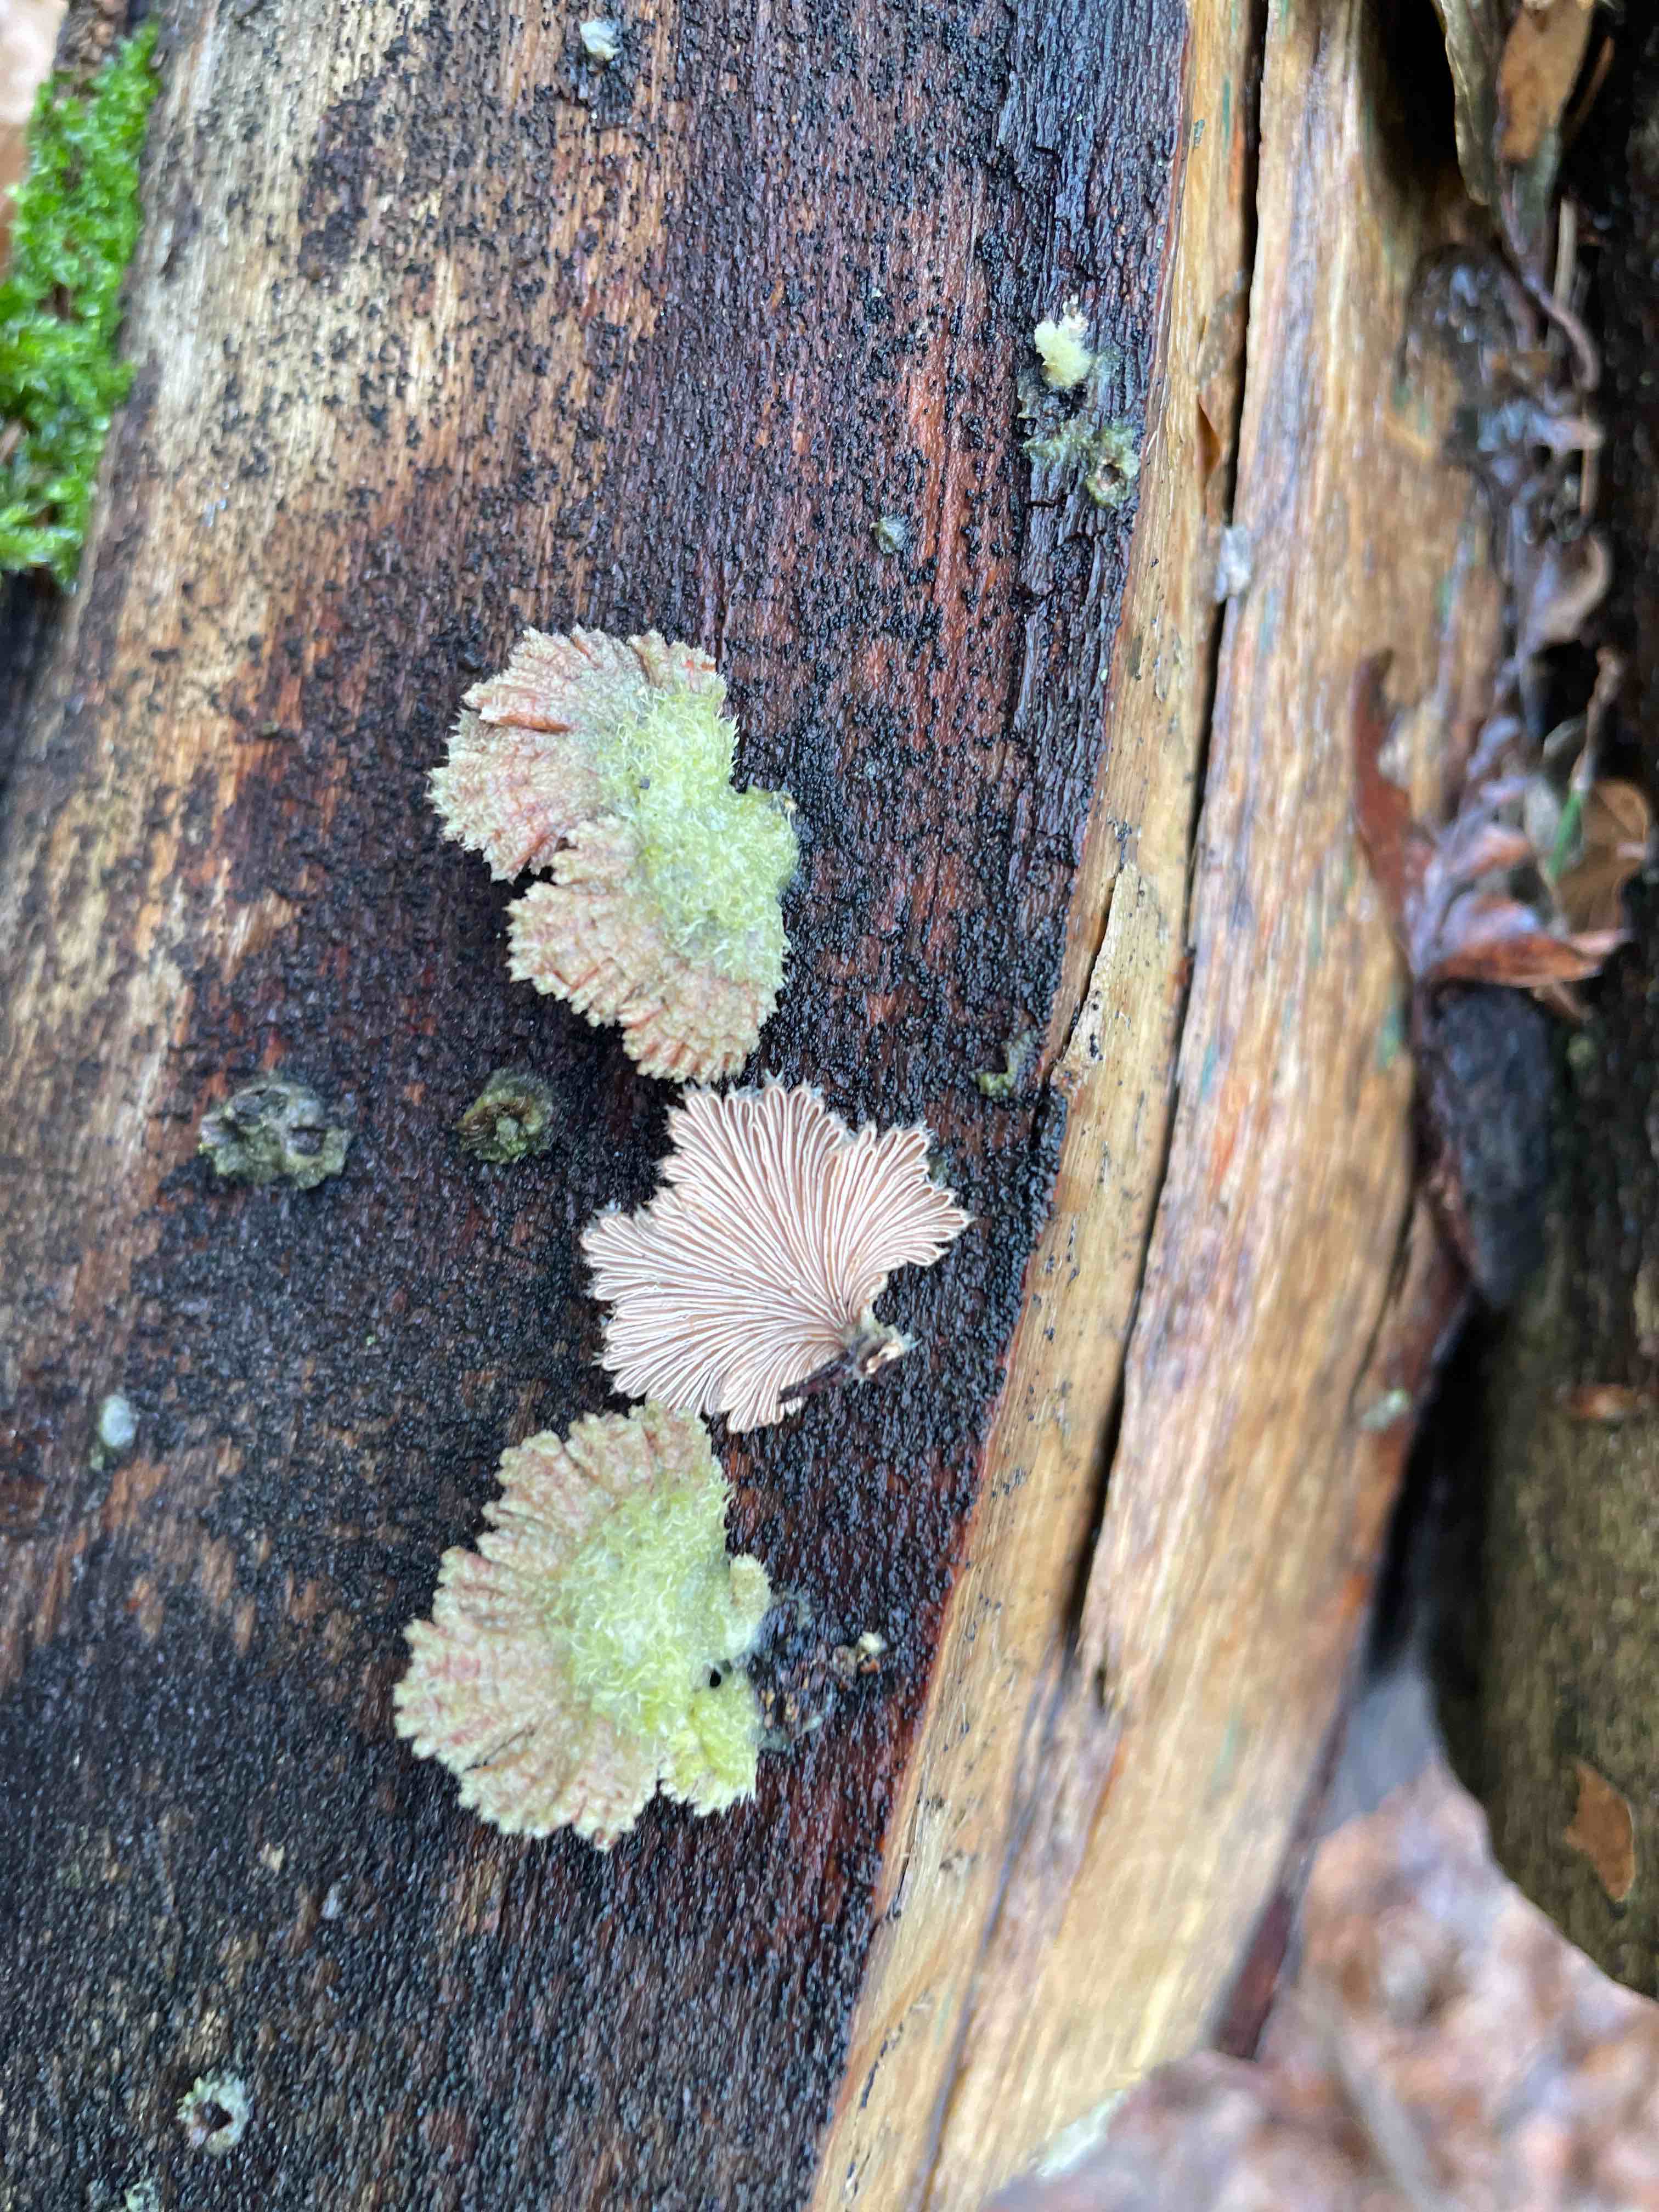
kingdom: Fungi
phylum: Basidiomycota
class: Agaricomycetes
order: Agaricales
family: Schizophyllaceae
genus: Schizophyllum
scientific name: Schizophyllum commune
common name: kløvblad
